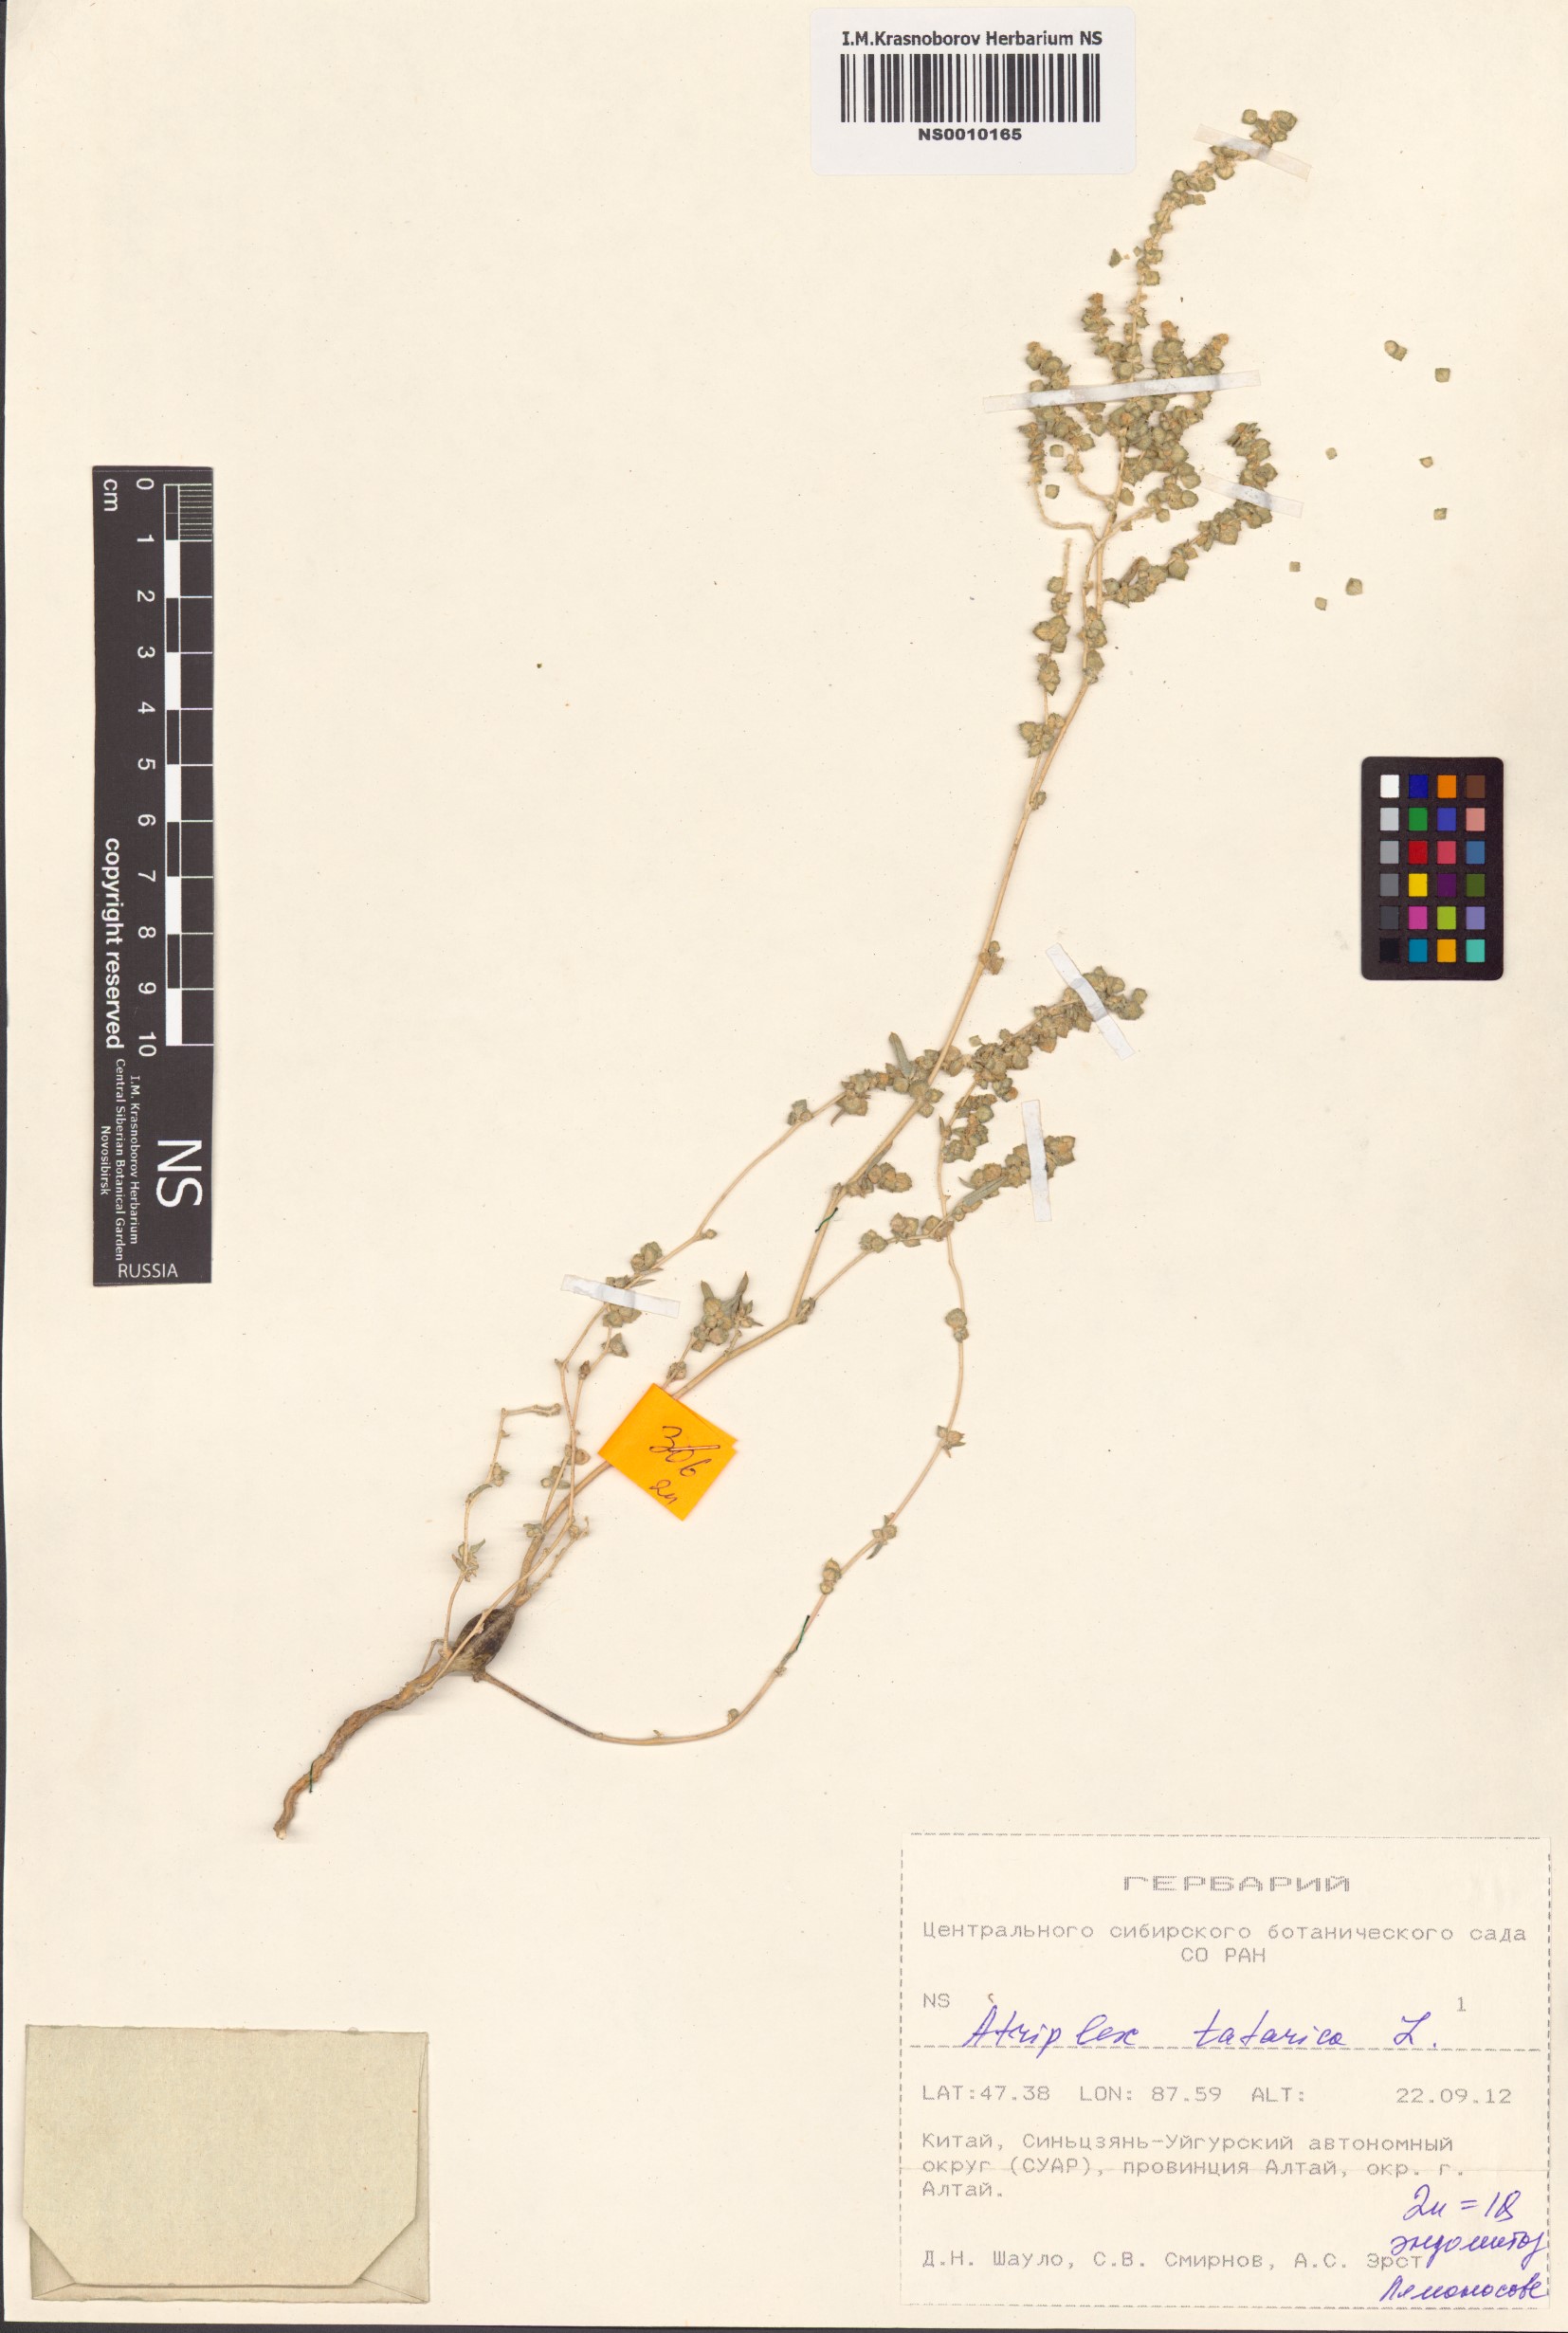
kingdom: Plantae
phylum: Tracheophyta
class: Magnoliopsida
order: Caryophyllales
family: Amaranthaceae
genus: Atriplex
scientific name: Atriplex tatarica
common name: Tatarian orache
